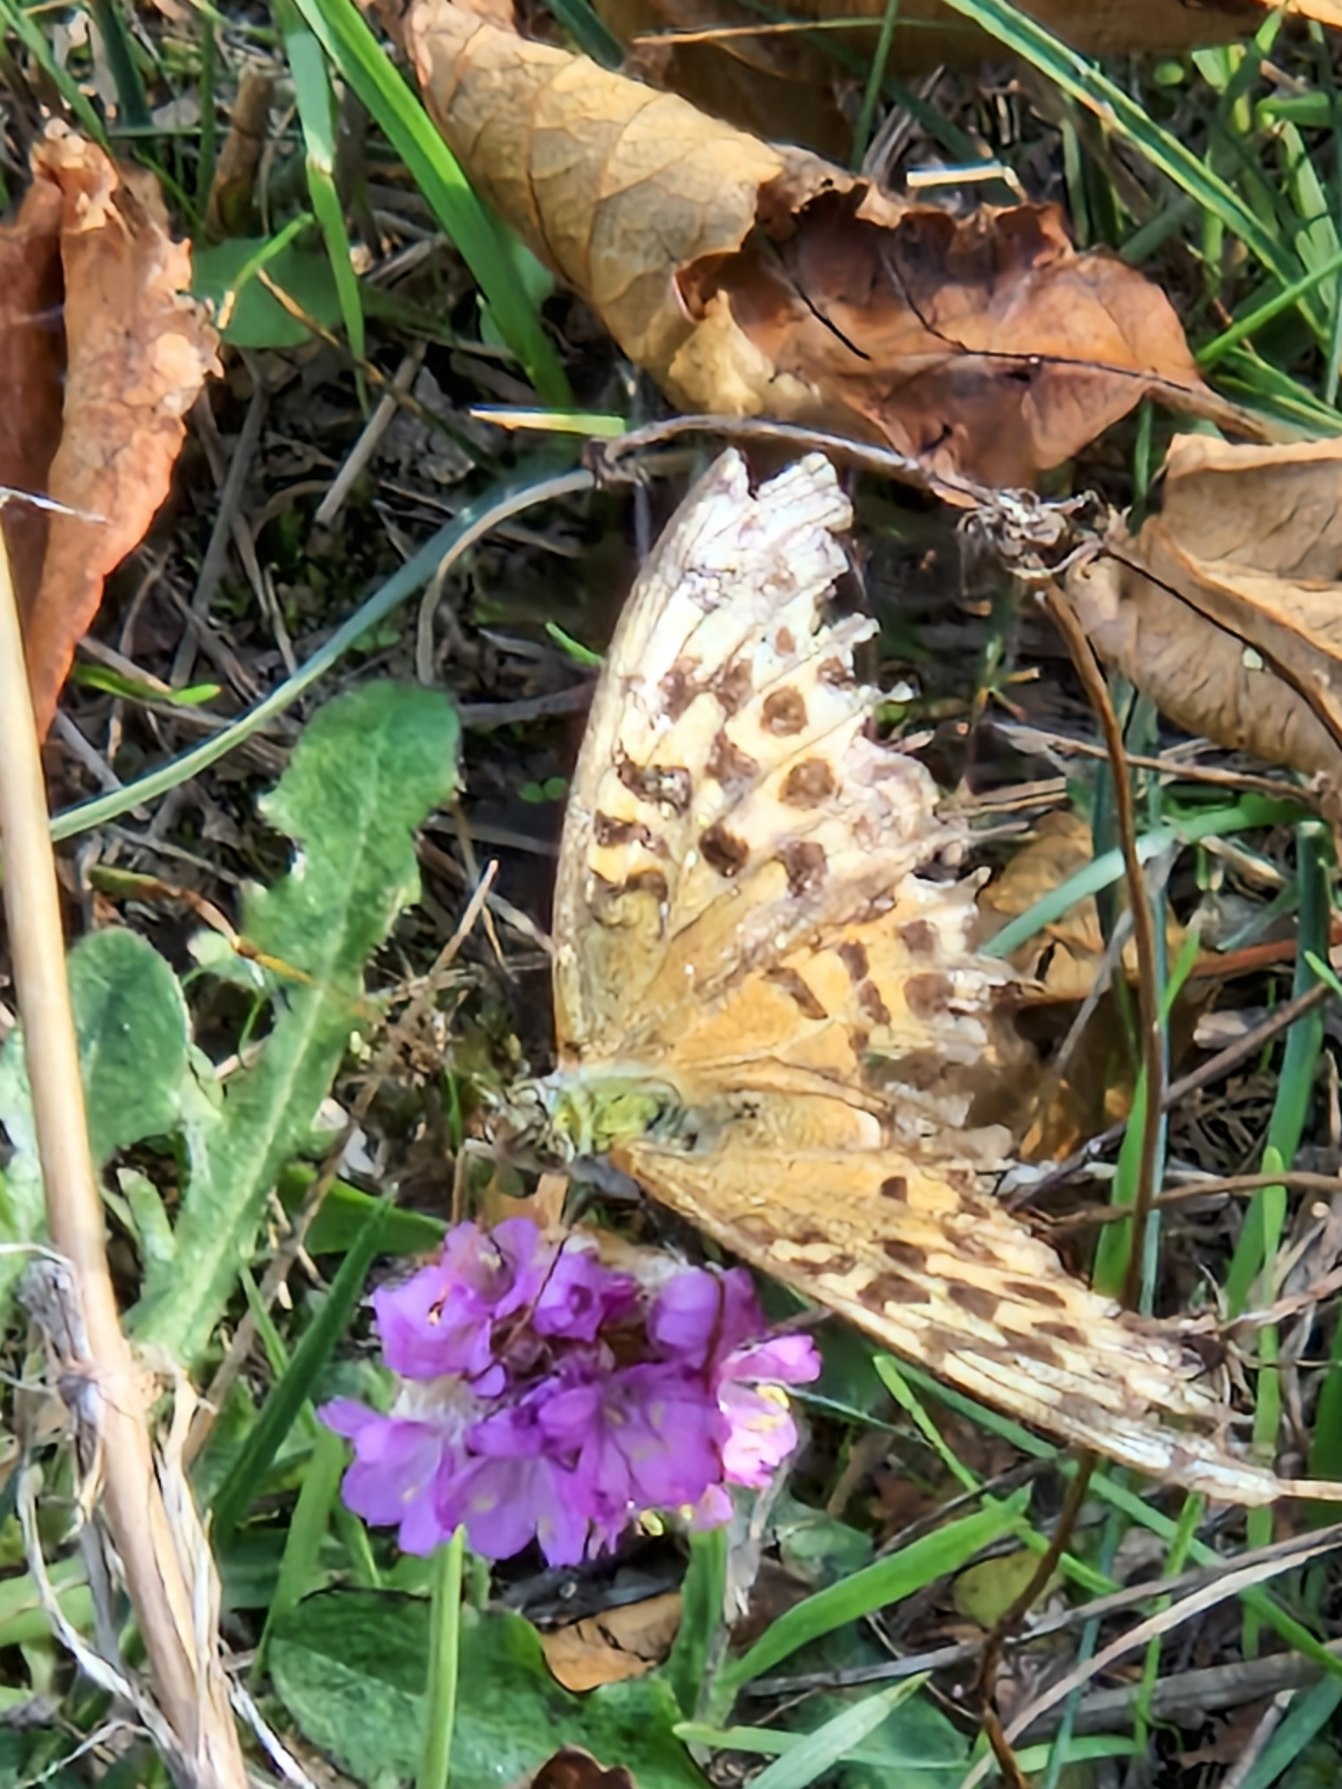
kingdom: Animalia
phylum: Arthropoda
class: Insecta
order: Lepidoptera
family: Nymphalidae
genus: Argynnis
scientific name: Argynnis paphia
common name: Kejserkåbe
